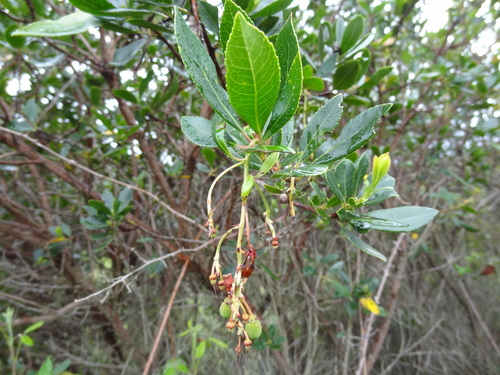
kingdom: Plantae
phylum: Tracheophyta
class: Magnoliopsida
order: Ericales
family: Ericaceae
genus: Arbutus
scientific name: Arbutus unedo
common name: Strawberry-tree
